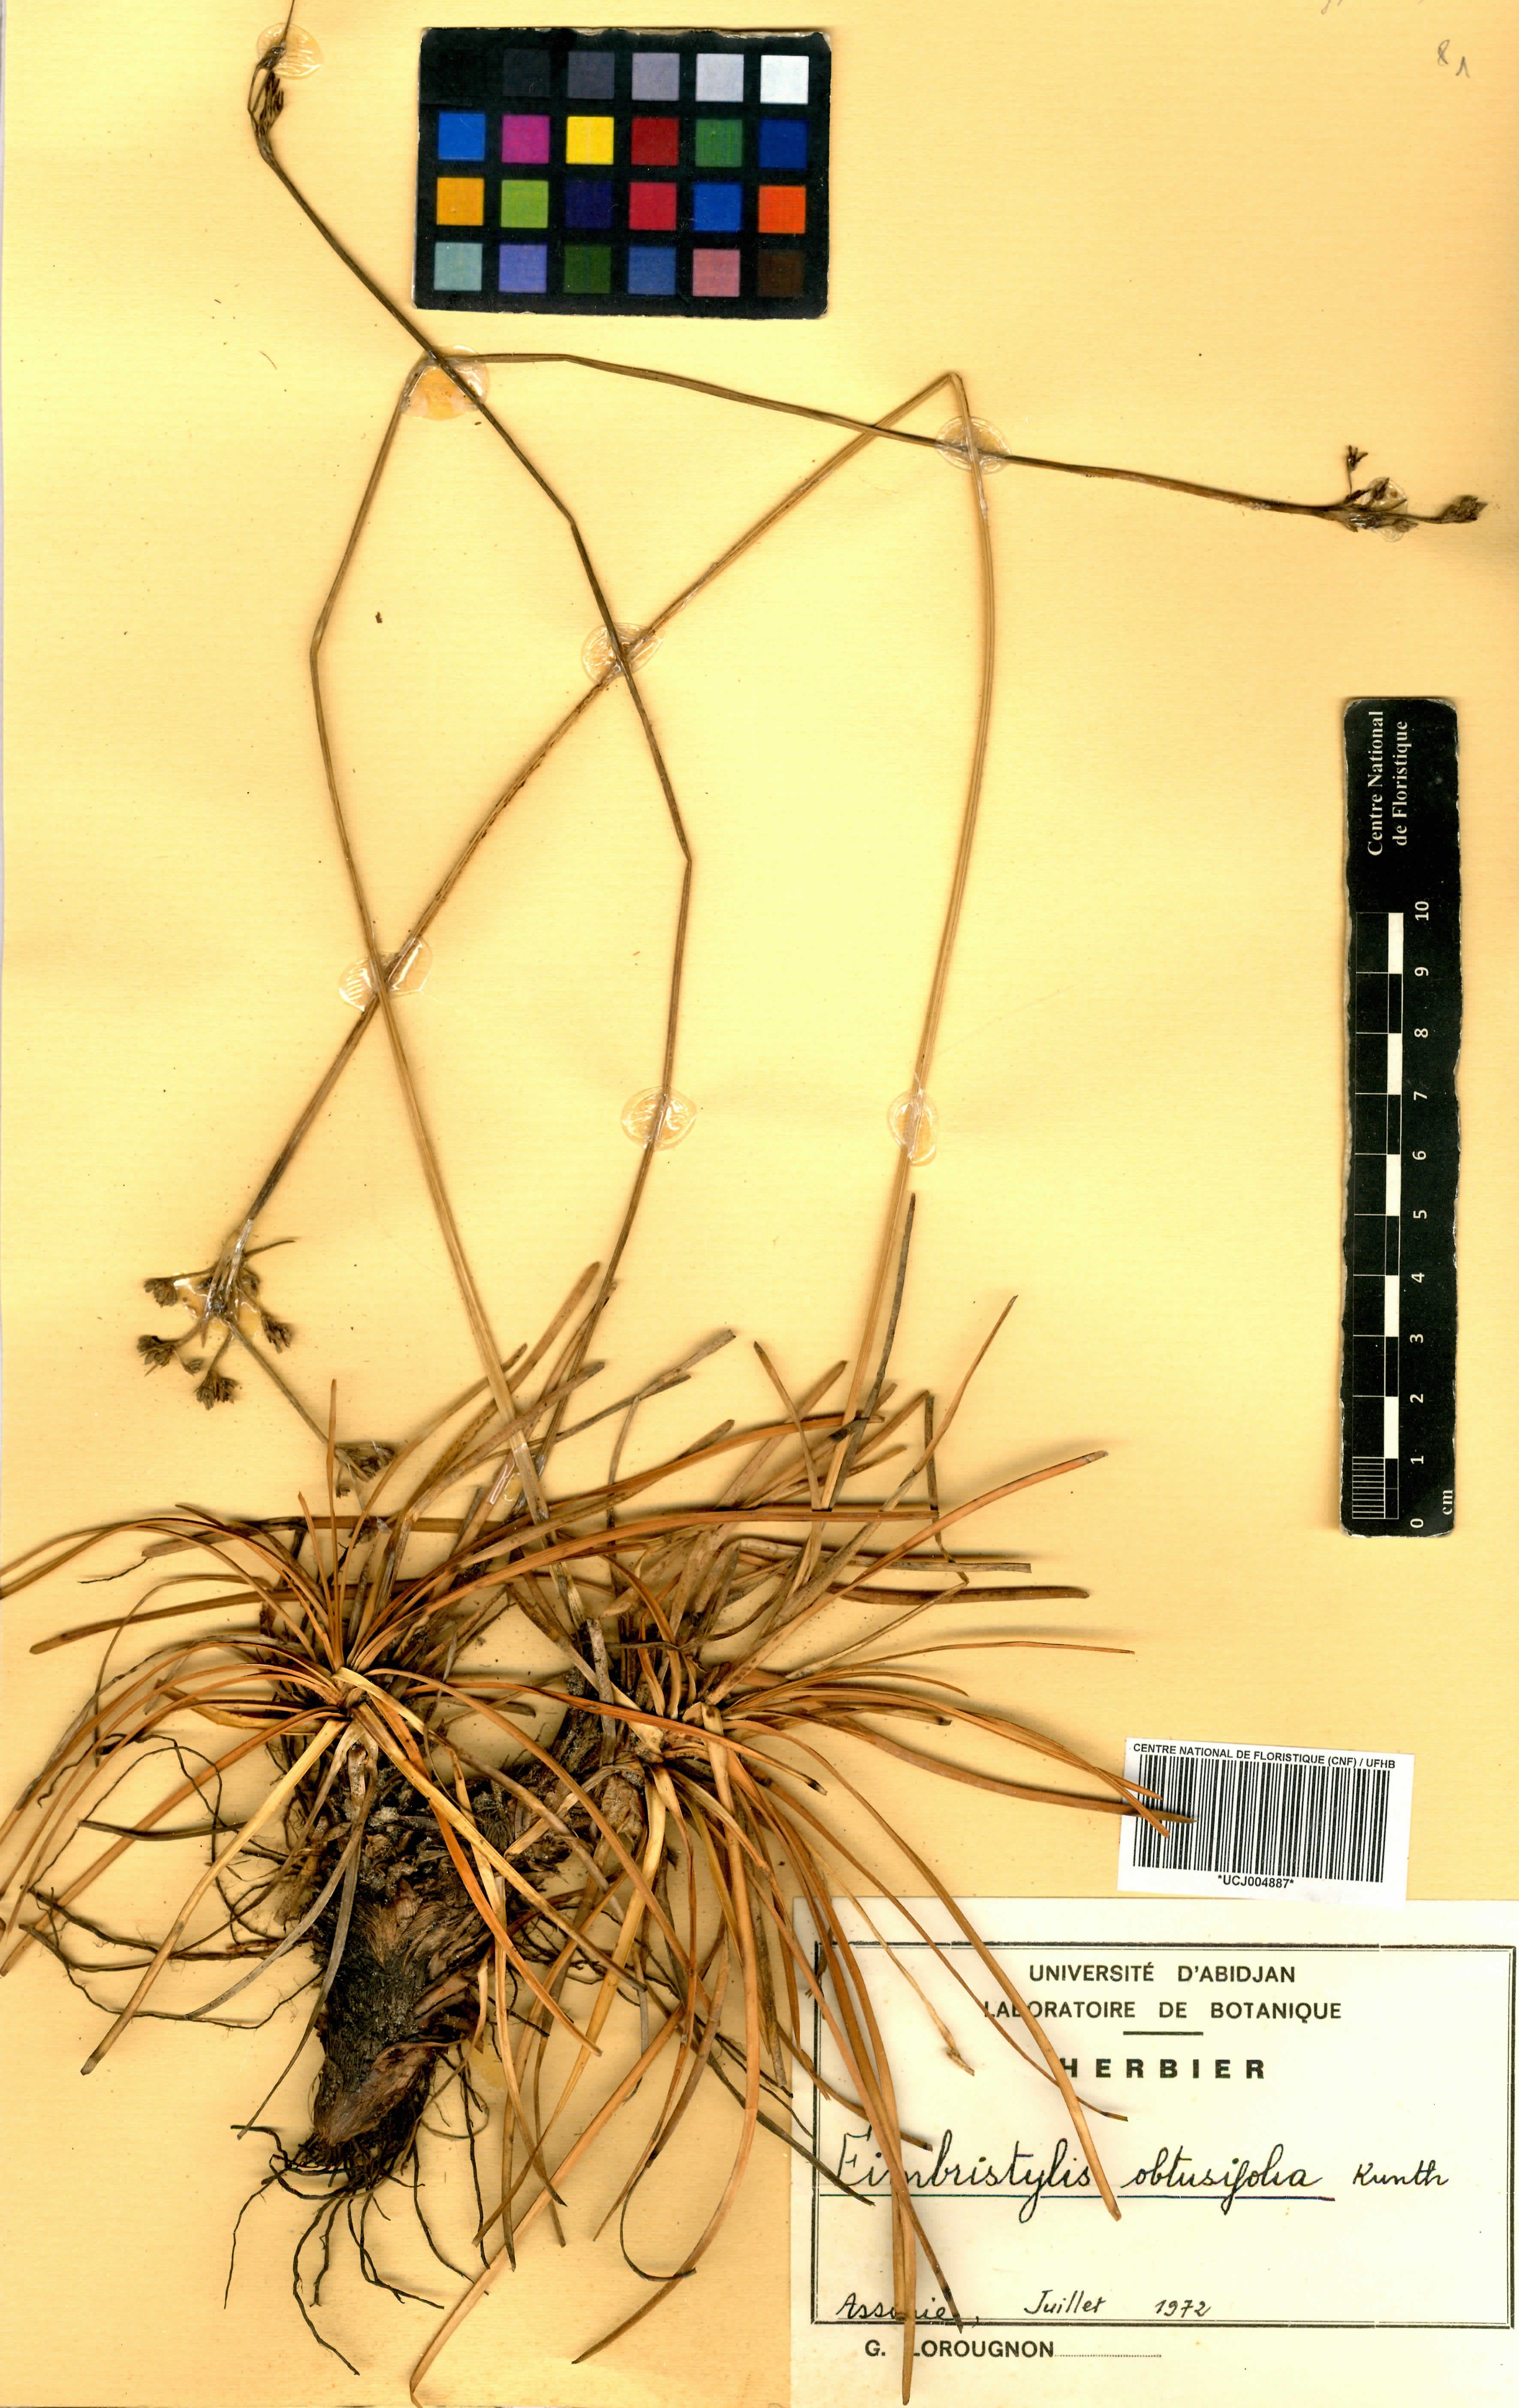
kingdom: Plantae
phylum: Tracheophyta
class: Liliopsida
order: Poales
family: Cyperaceae
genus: Fimbristylis
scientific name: Fimbristylis cymosa
